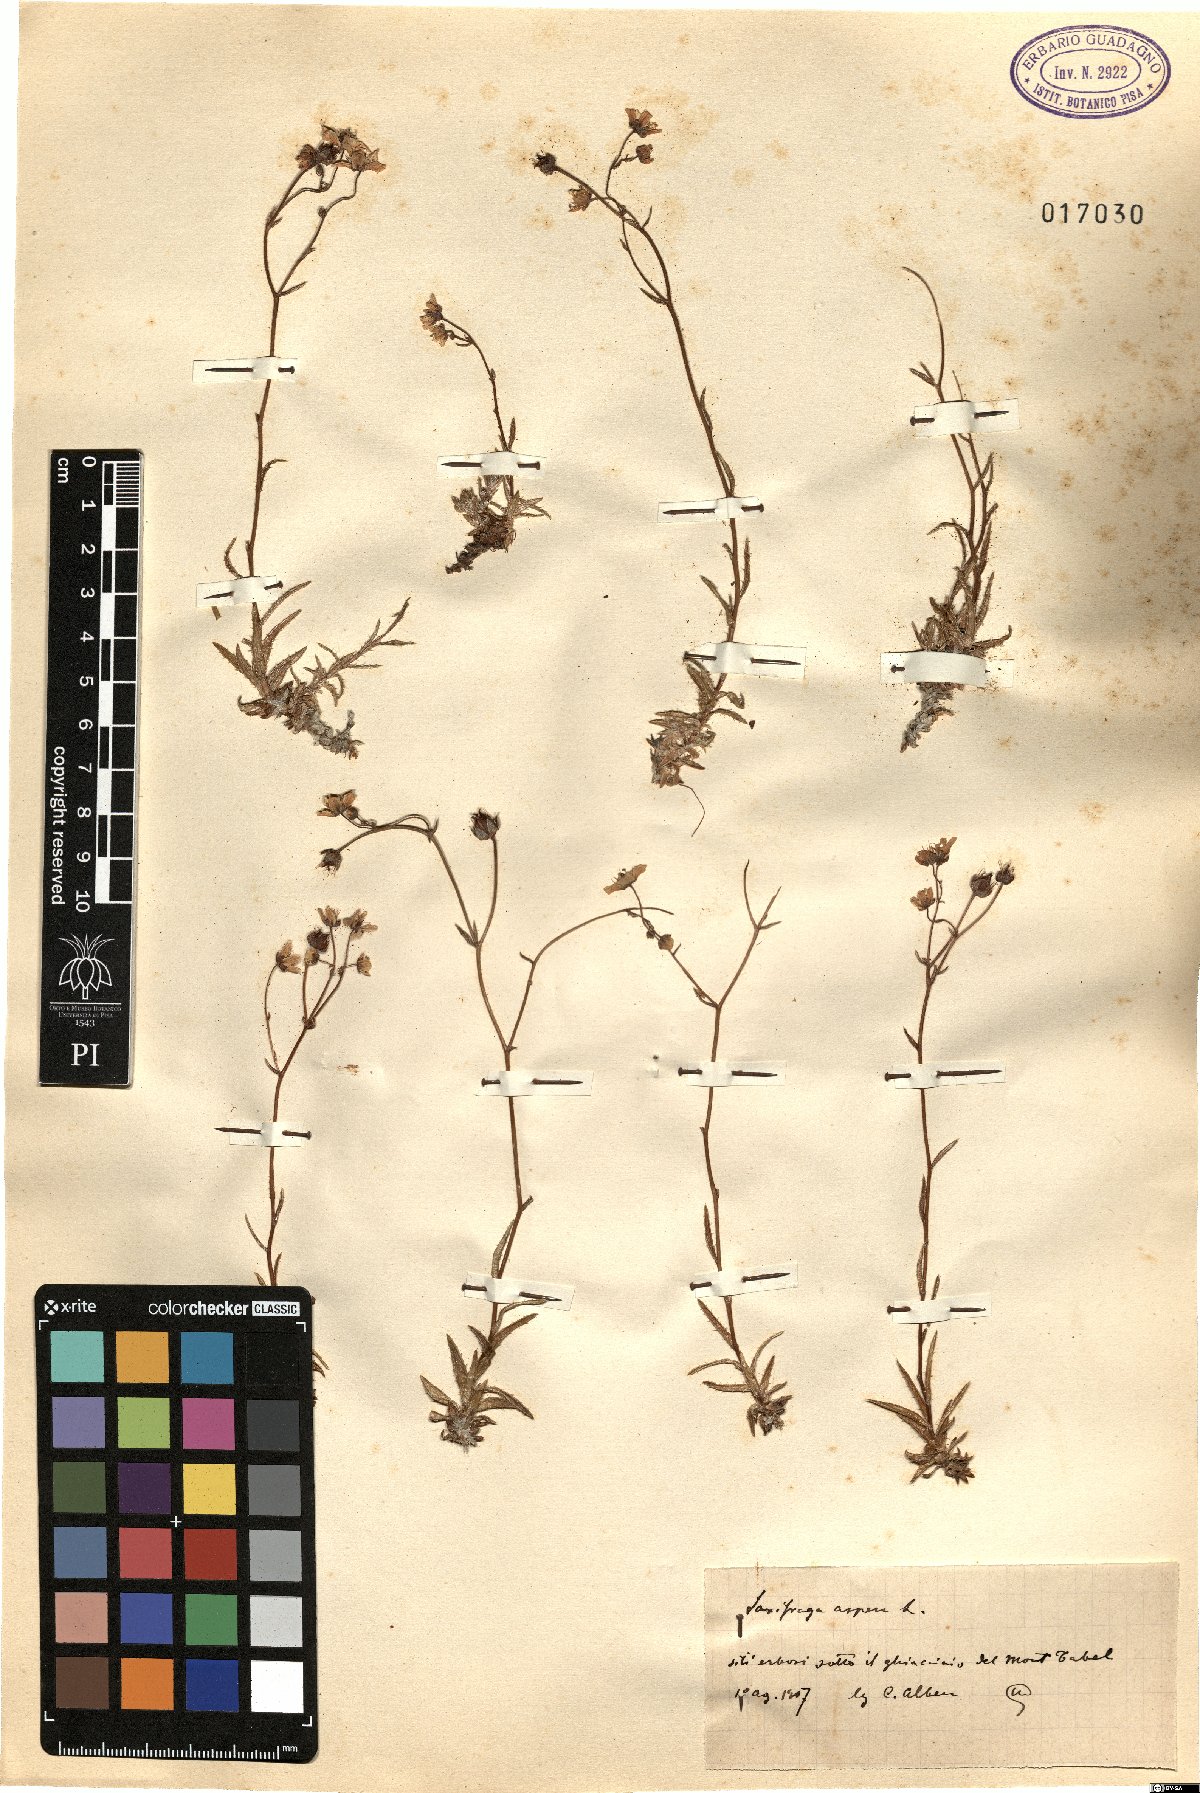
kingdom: Plantae
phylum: Tracheophyta
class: Magnoliopsida
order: Saxifragales
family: Saxifragaceae
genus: Saxifraga
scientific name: Saxifraga aspera
